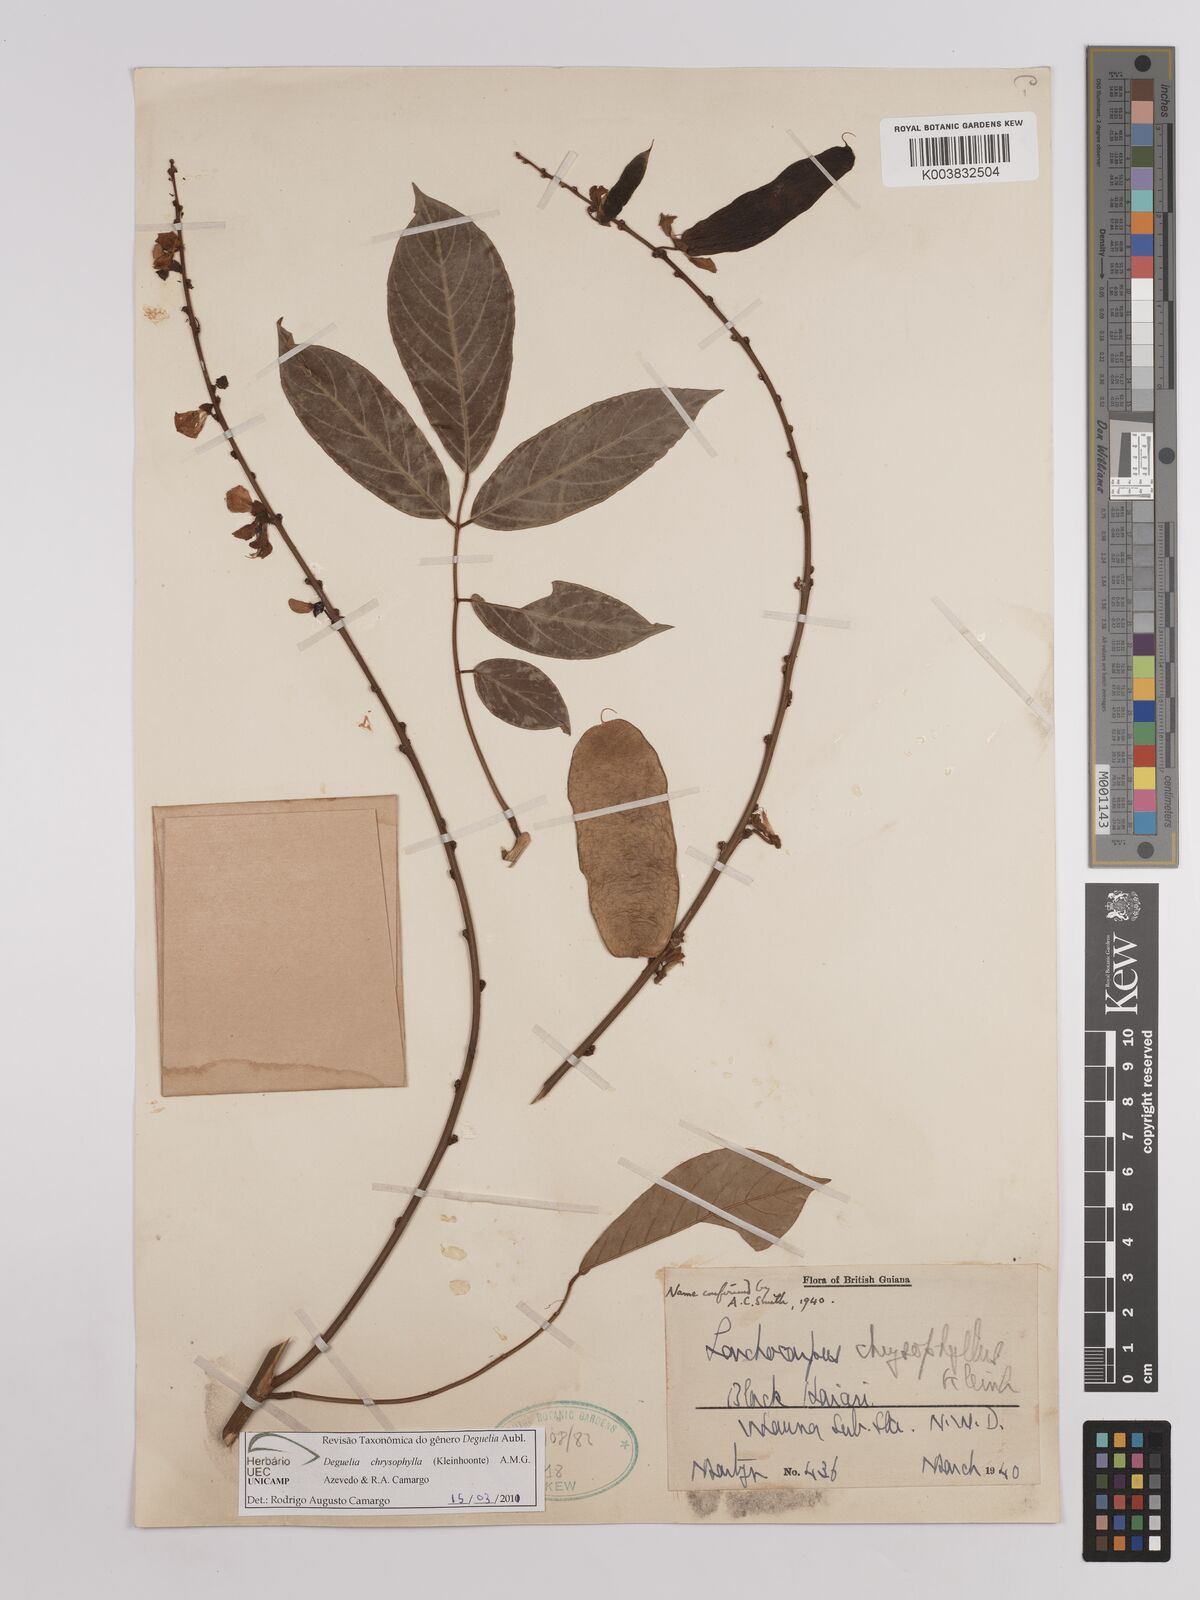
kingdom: Plantae
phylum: Tracheophyta
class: Magnoliopsida
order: Fabales
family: Fabaceae
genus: Deguelia
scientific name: Deguelia chrysophylla
